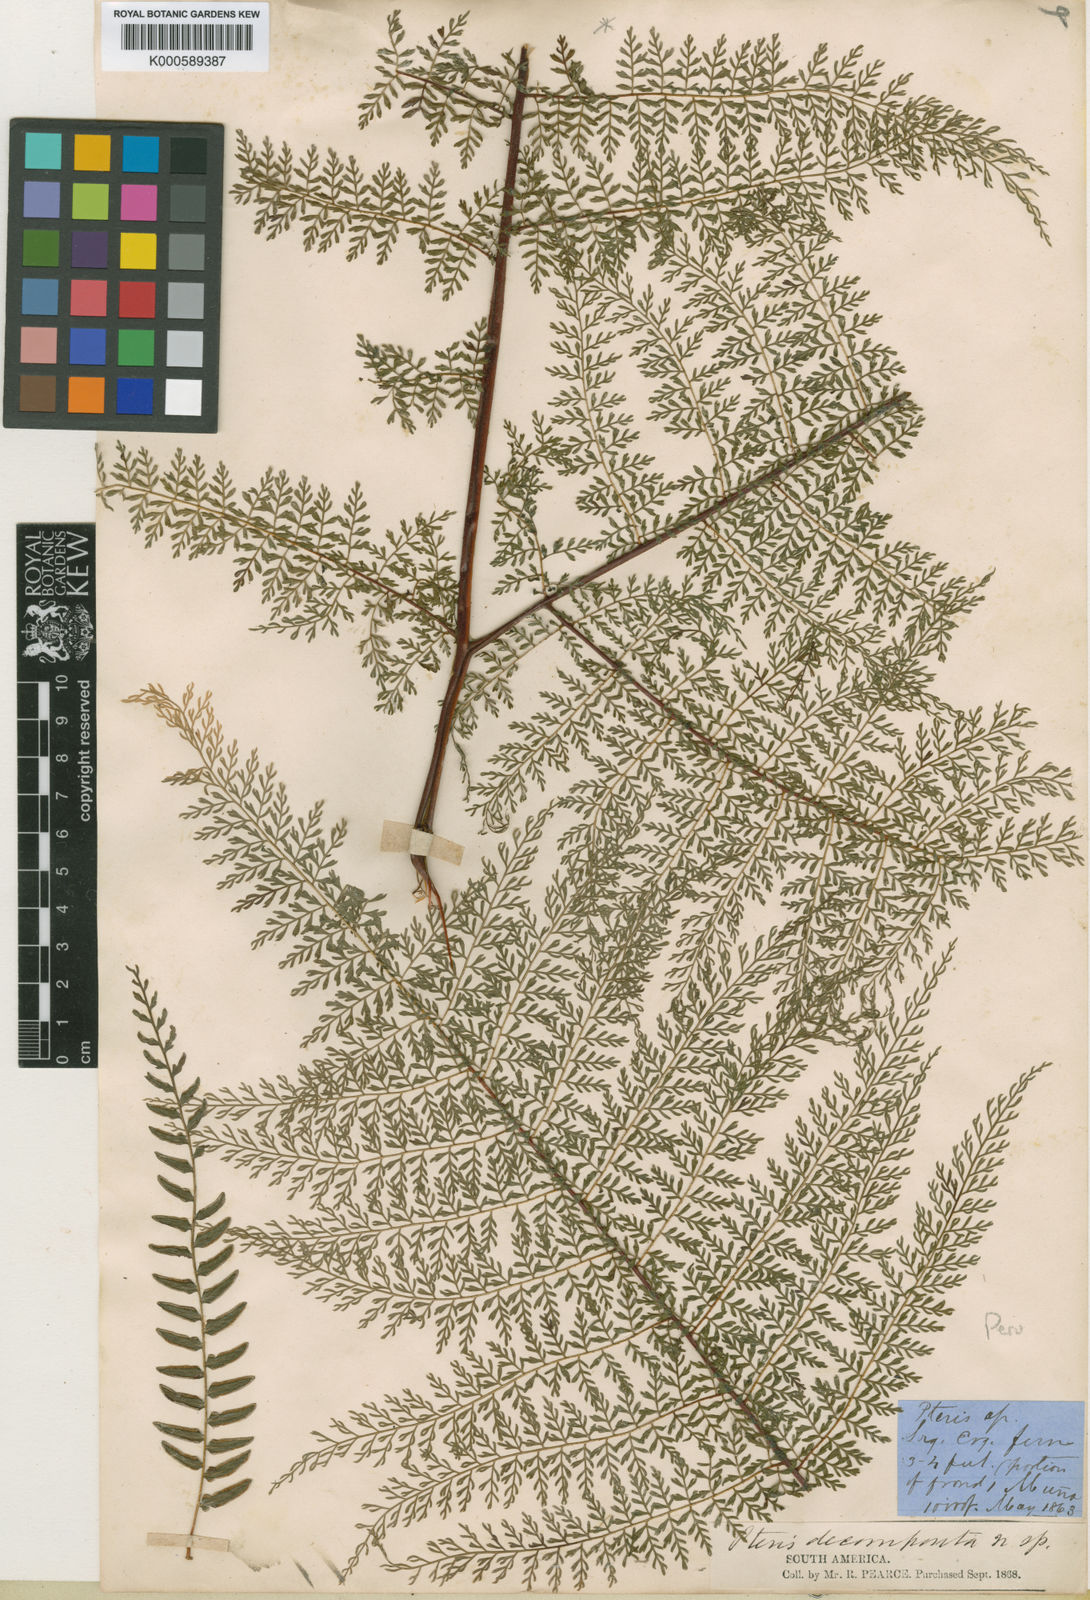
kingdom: Plantae
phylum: Tracheophyta
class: Polypodiopsida
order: Polypodiales
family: Dennstaedtiaceae
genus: Pteridium
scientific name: Pteridium aquilinum
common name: Bracken
